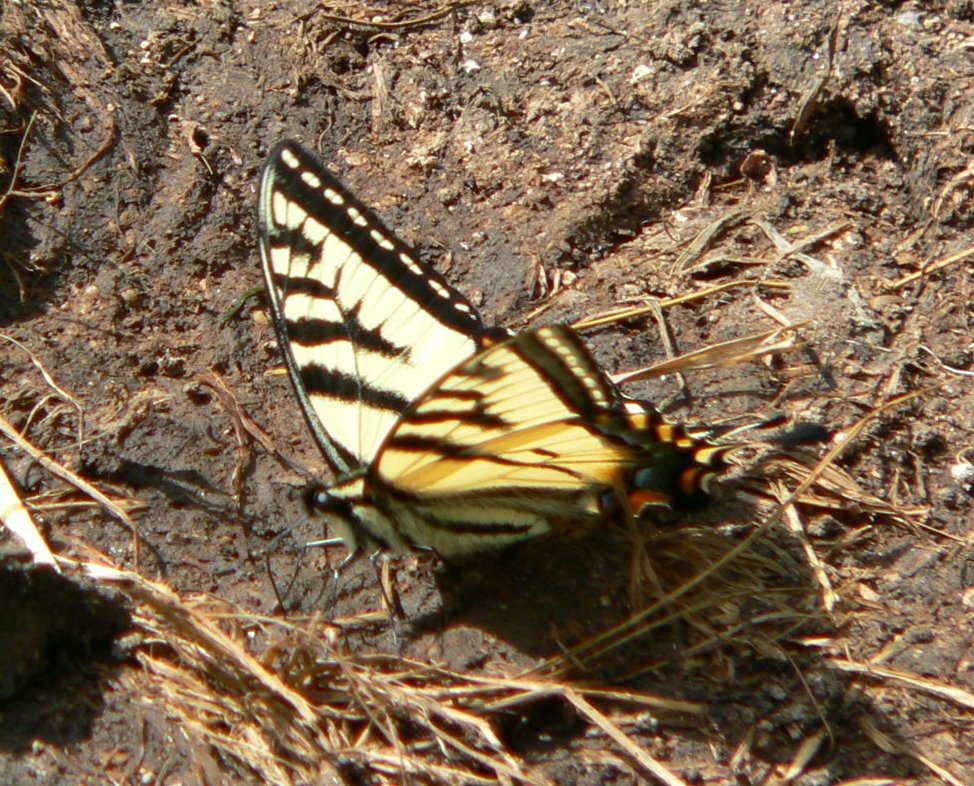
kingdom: Animalia
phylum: Arthropoda
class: Insecta
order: Lepidoptera
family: Papilionidae
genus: Pterourus
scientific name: Pterourus canadensis
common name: Canadian Tiger Swallowtail
